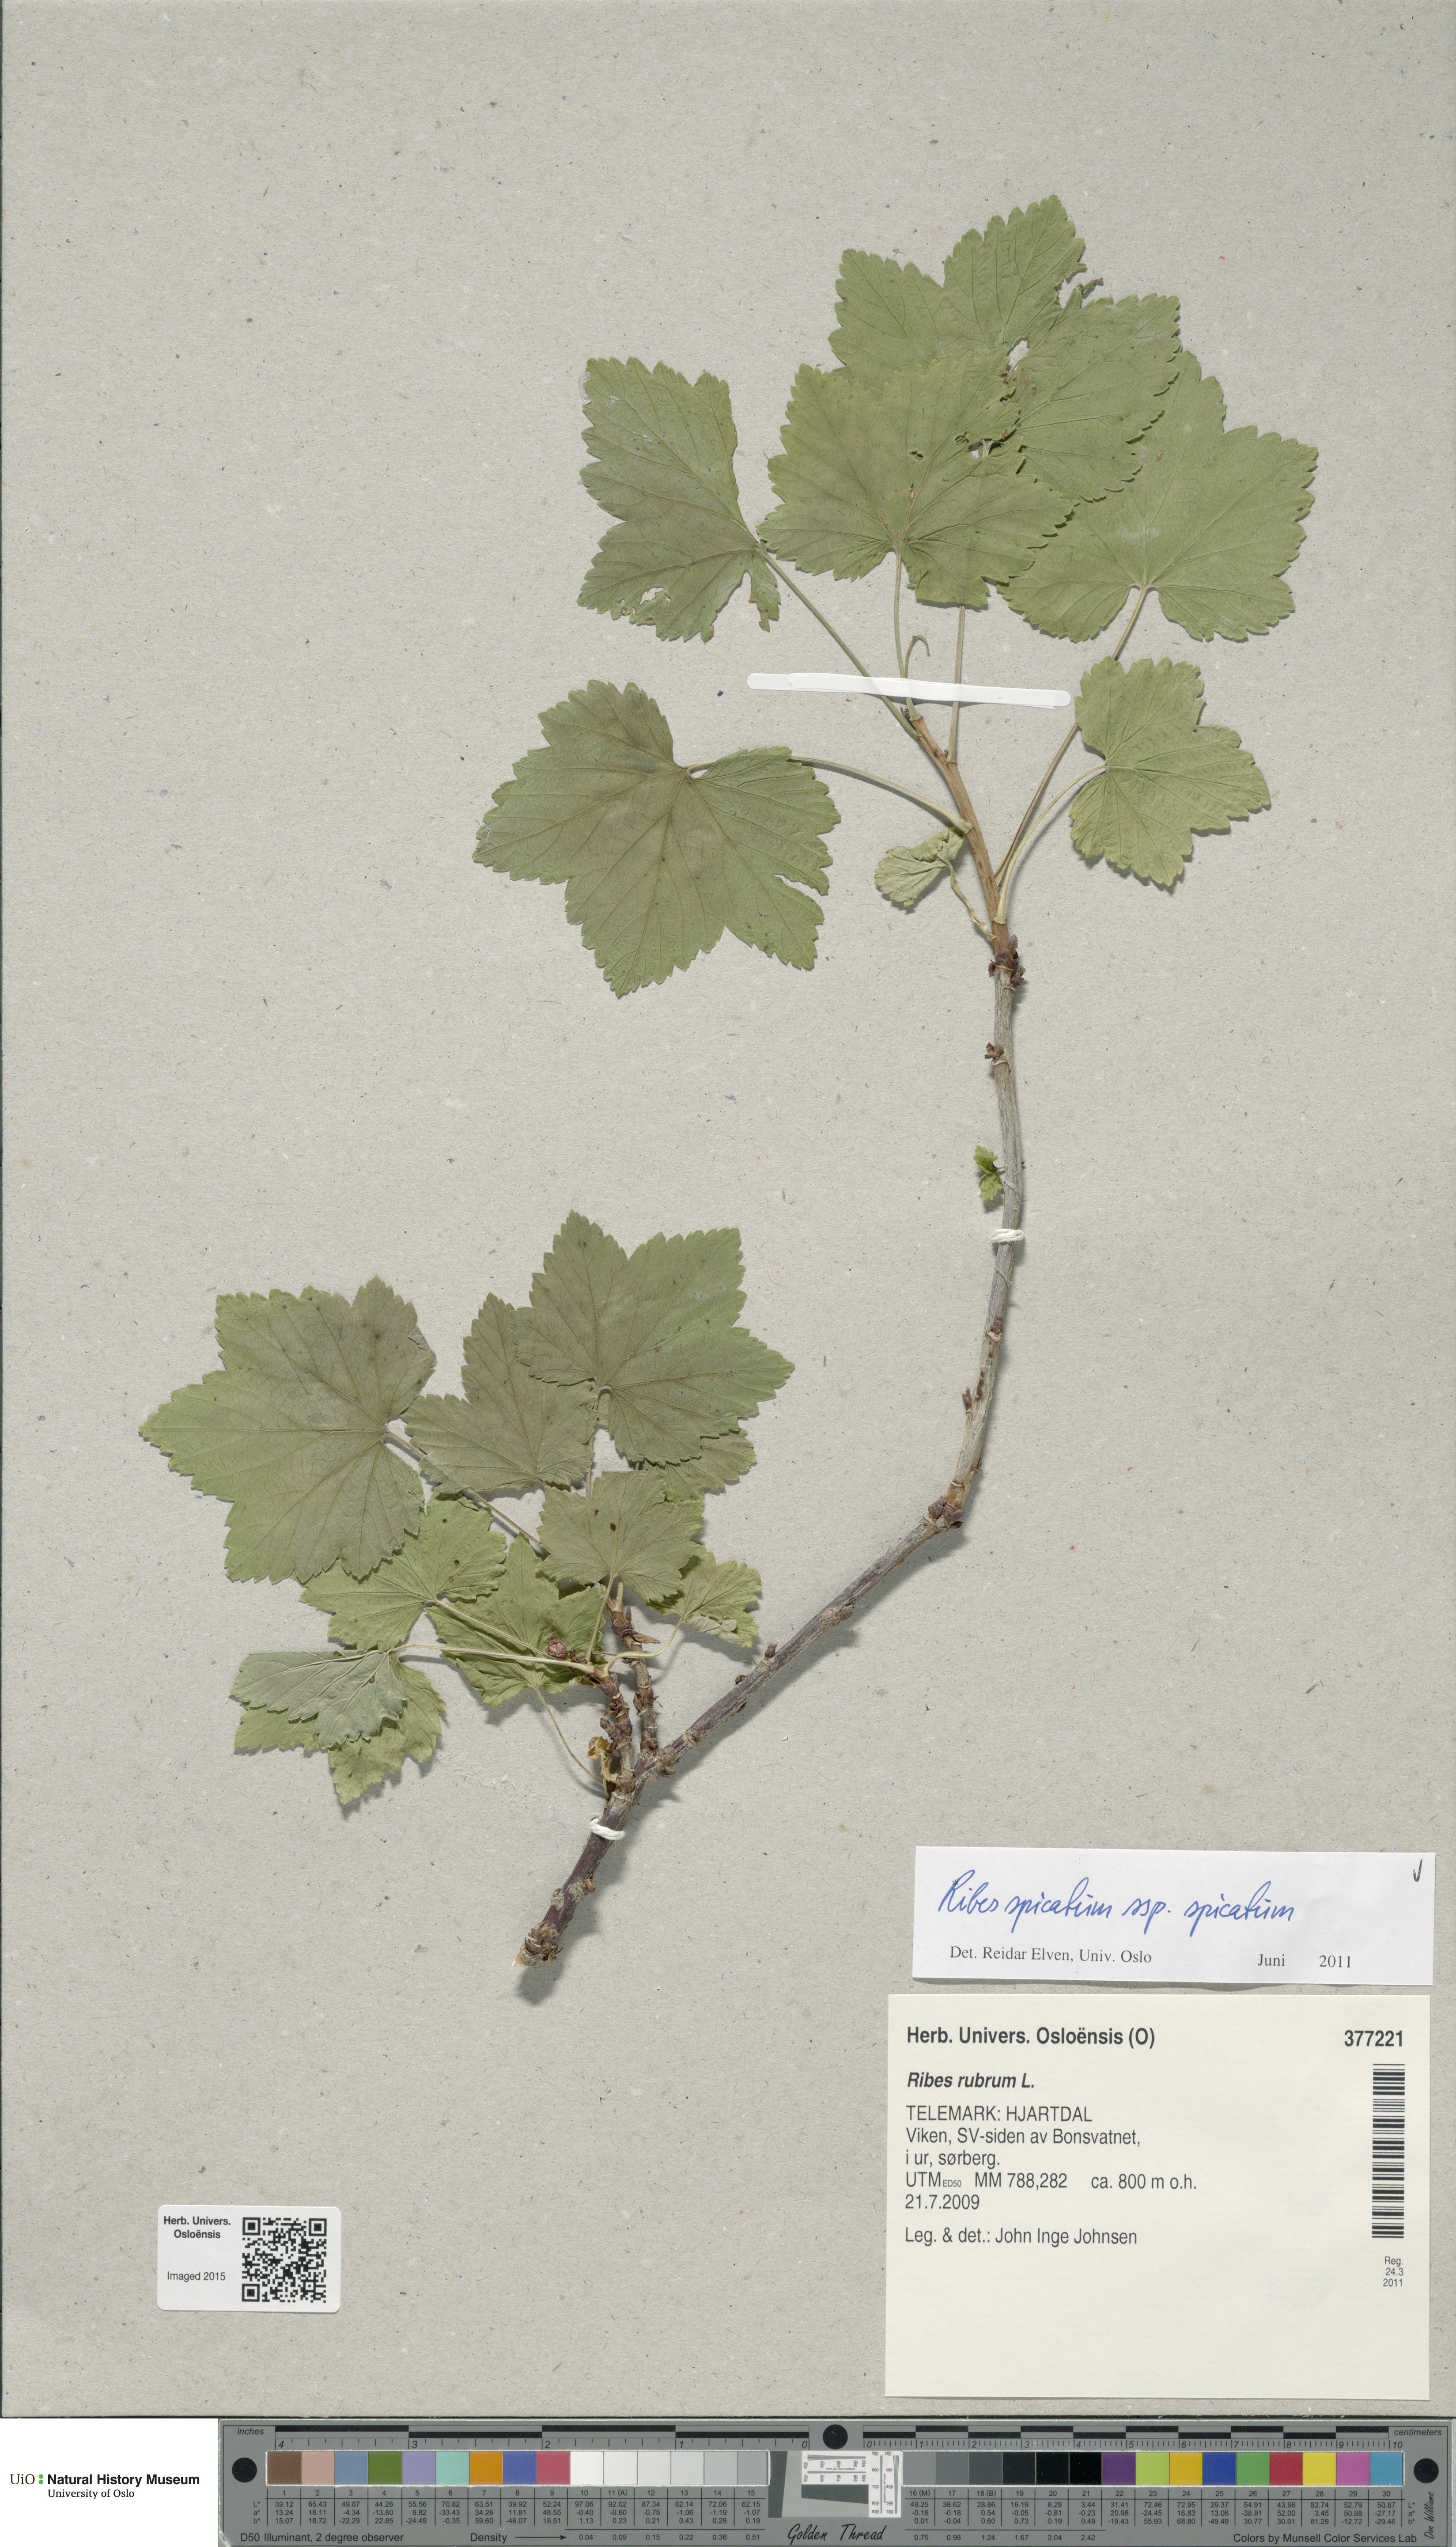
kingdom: Plantae
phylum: Tracheophyta
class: Magnoliopsida
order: Saxifragales
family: Grossulariaceae
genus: Ribes
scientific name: Ribes spicatum
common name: Downy currant
